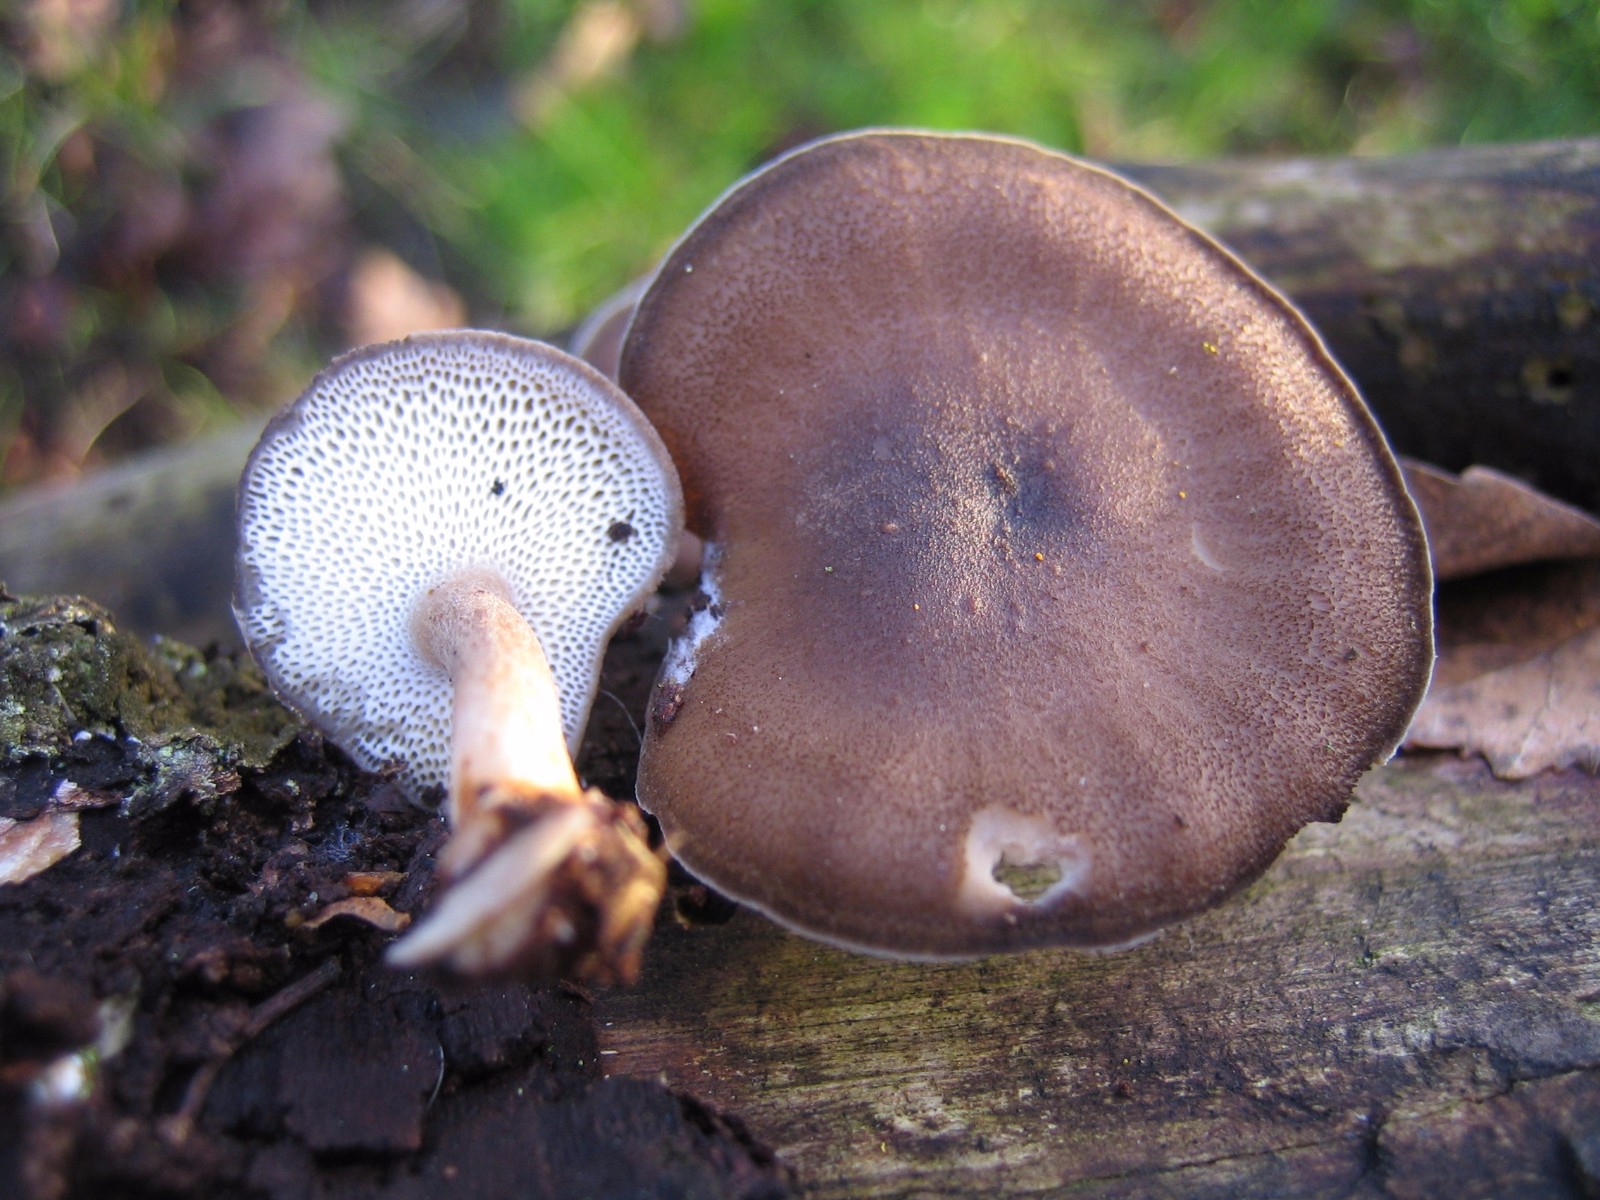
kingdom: Fungi
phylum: Basidiomycota
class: Agaricomycetes
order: Polyporales
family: Polyporaceae
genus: Lentinus
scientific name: Lentinus brumalis
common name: vinter-stilkporesvamp
